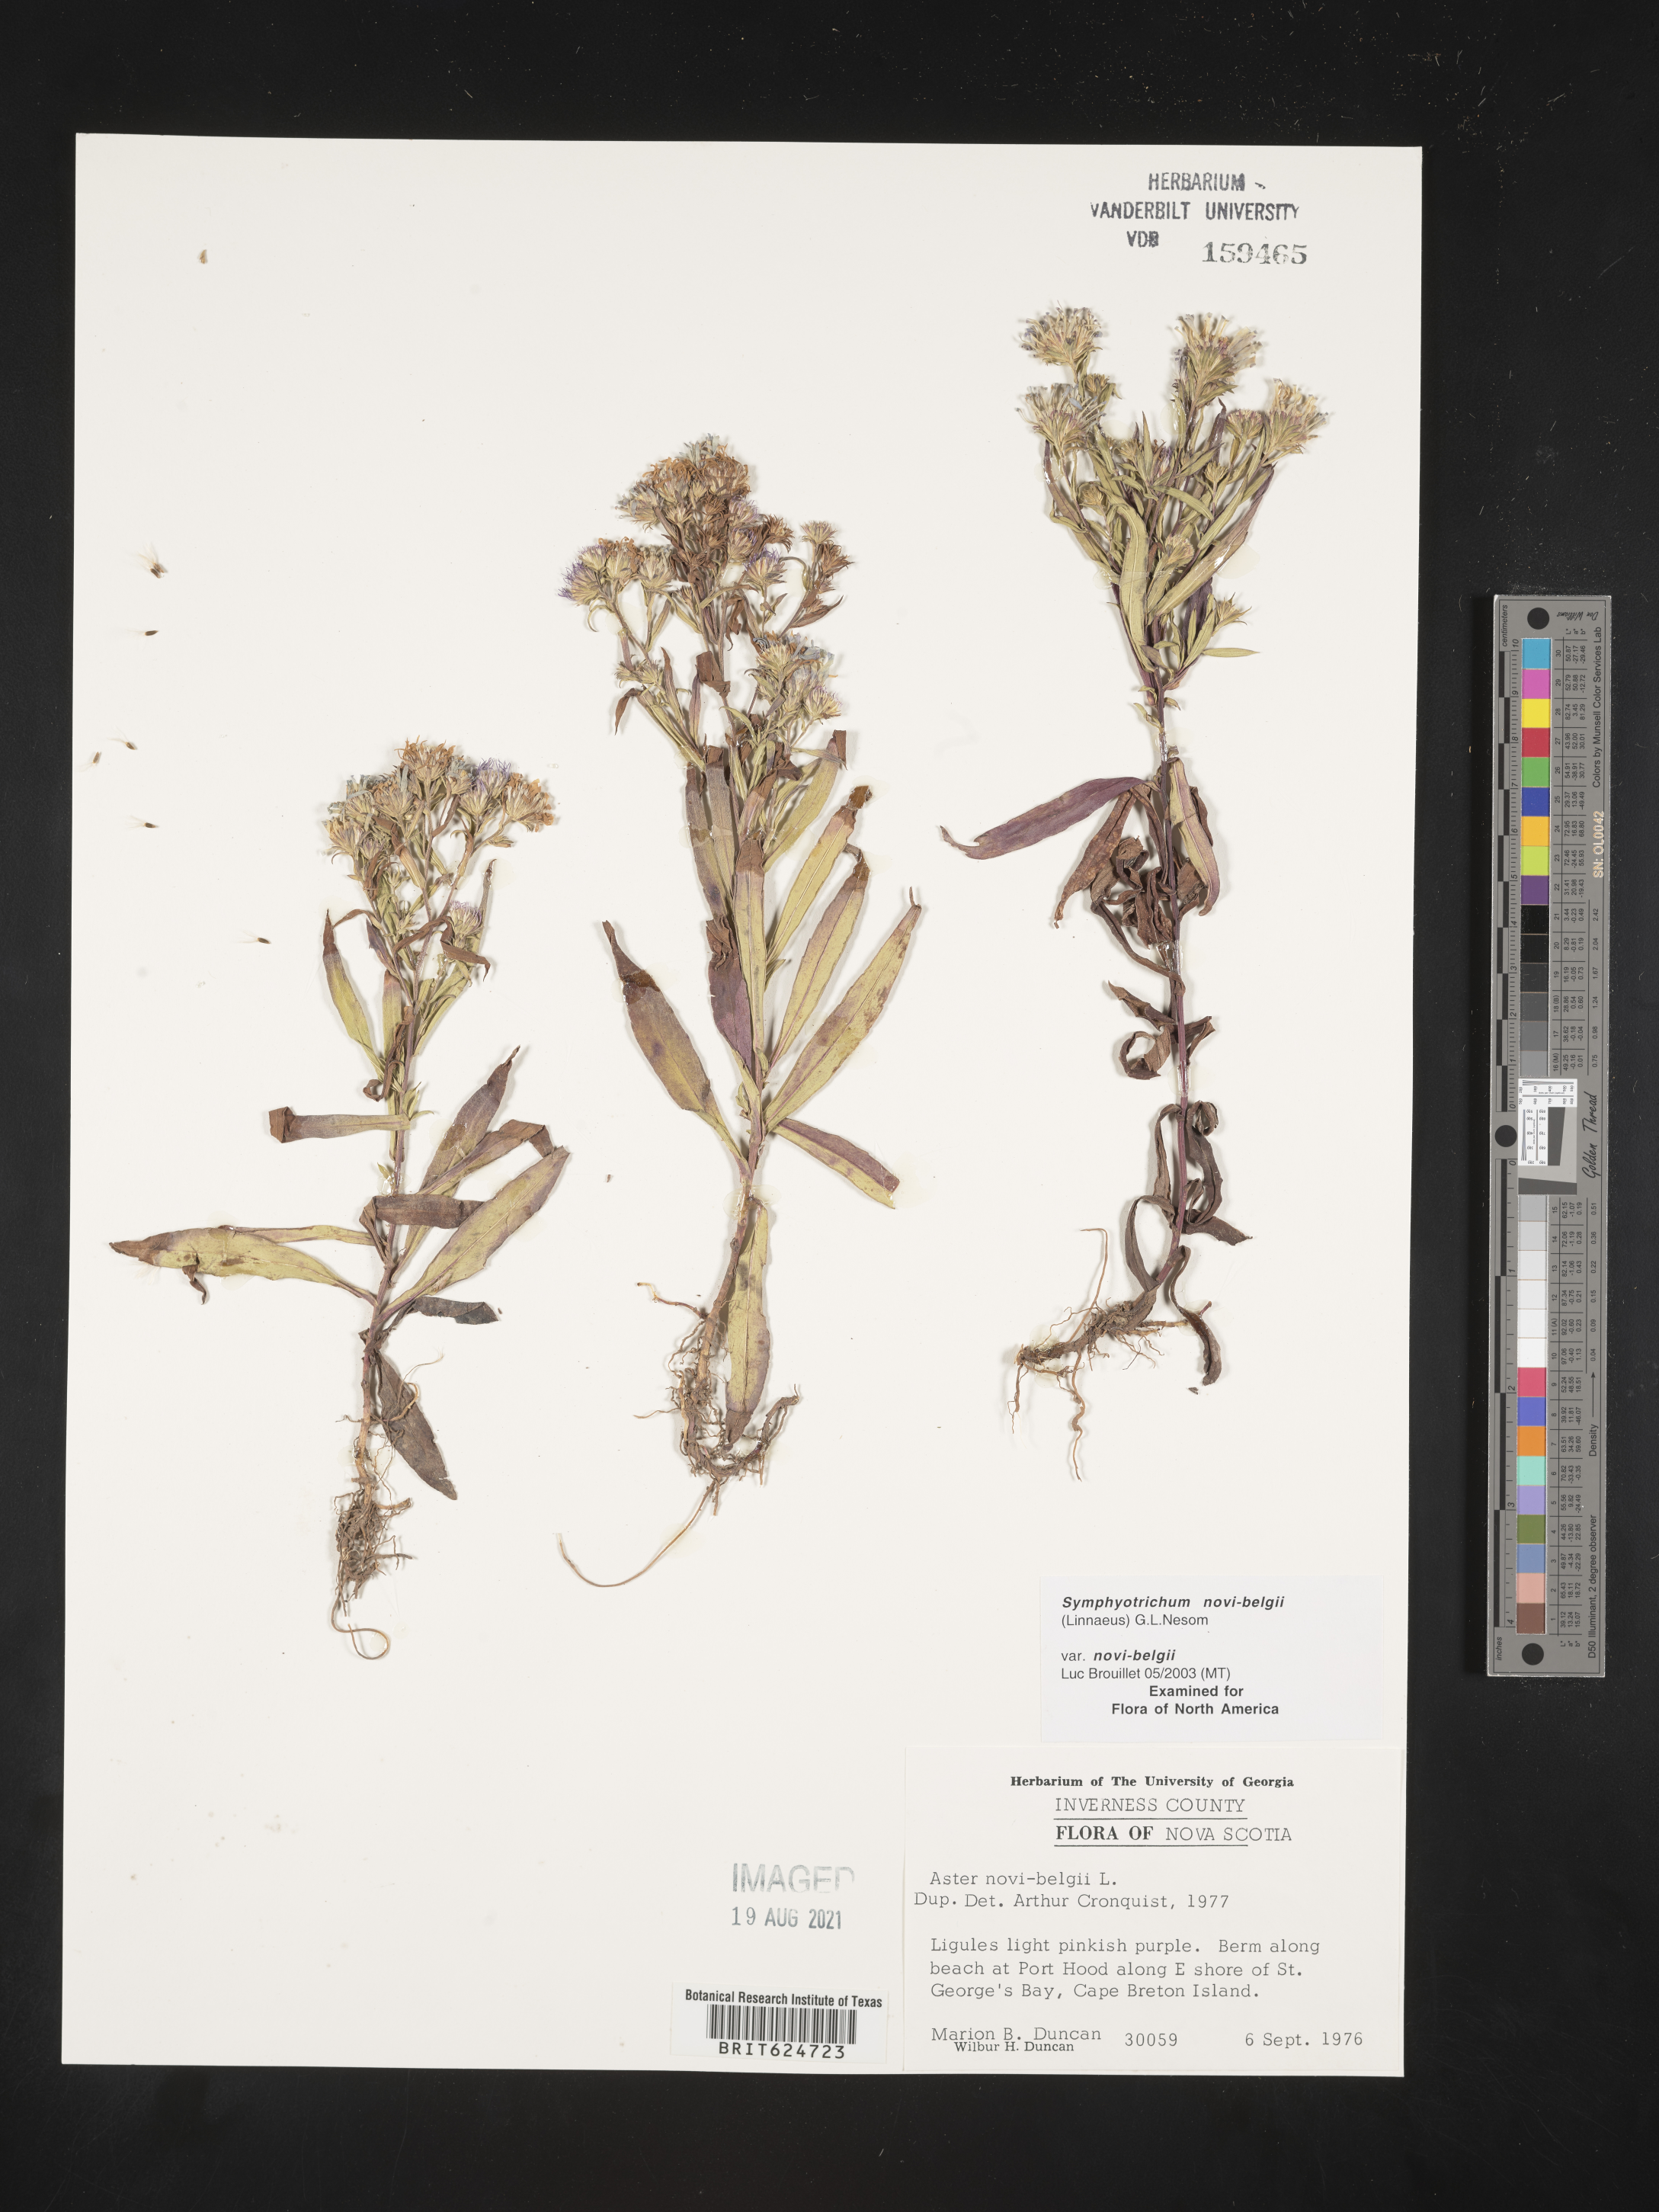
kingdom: Plantae
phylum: Tracheophyta
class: Magnoliopsida
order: Asterales
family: Asteraceae
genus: Symphyotrichum
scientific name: Symphyotrichum novi-belgii
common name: Michaelmas daisy
